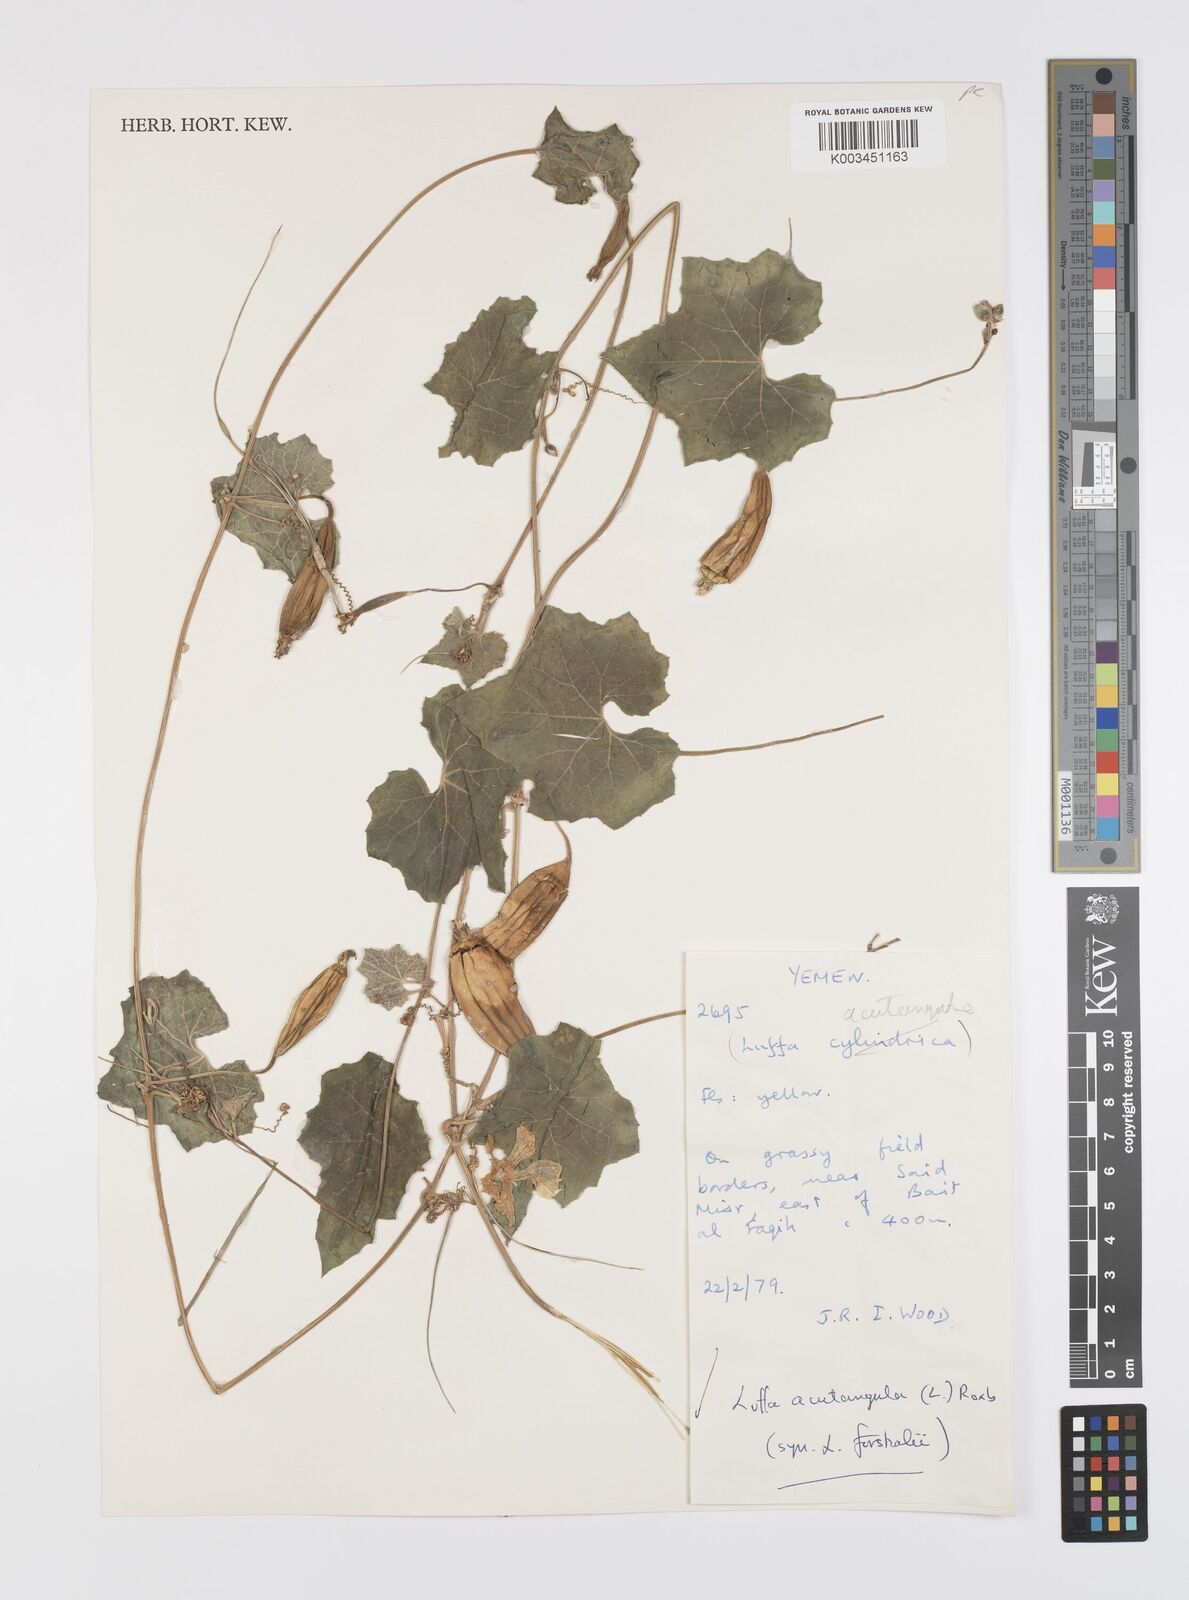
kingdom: Plantae
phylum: Tracheophyta
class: Magnoliopsida
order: Cucurbitales
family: Cucurbitaceae
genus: Luffa
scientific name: Luffa acutangula
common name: Sinkwa towelsponge
